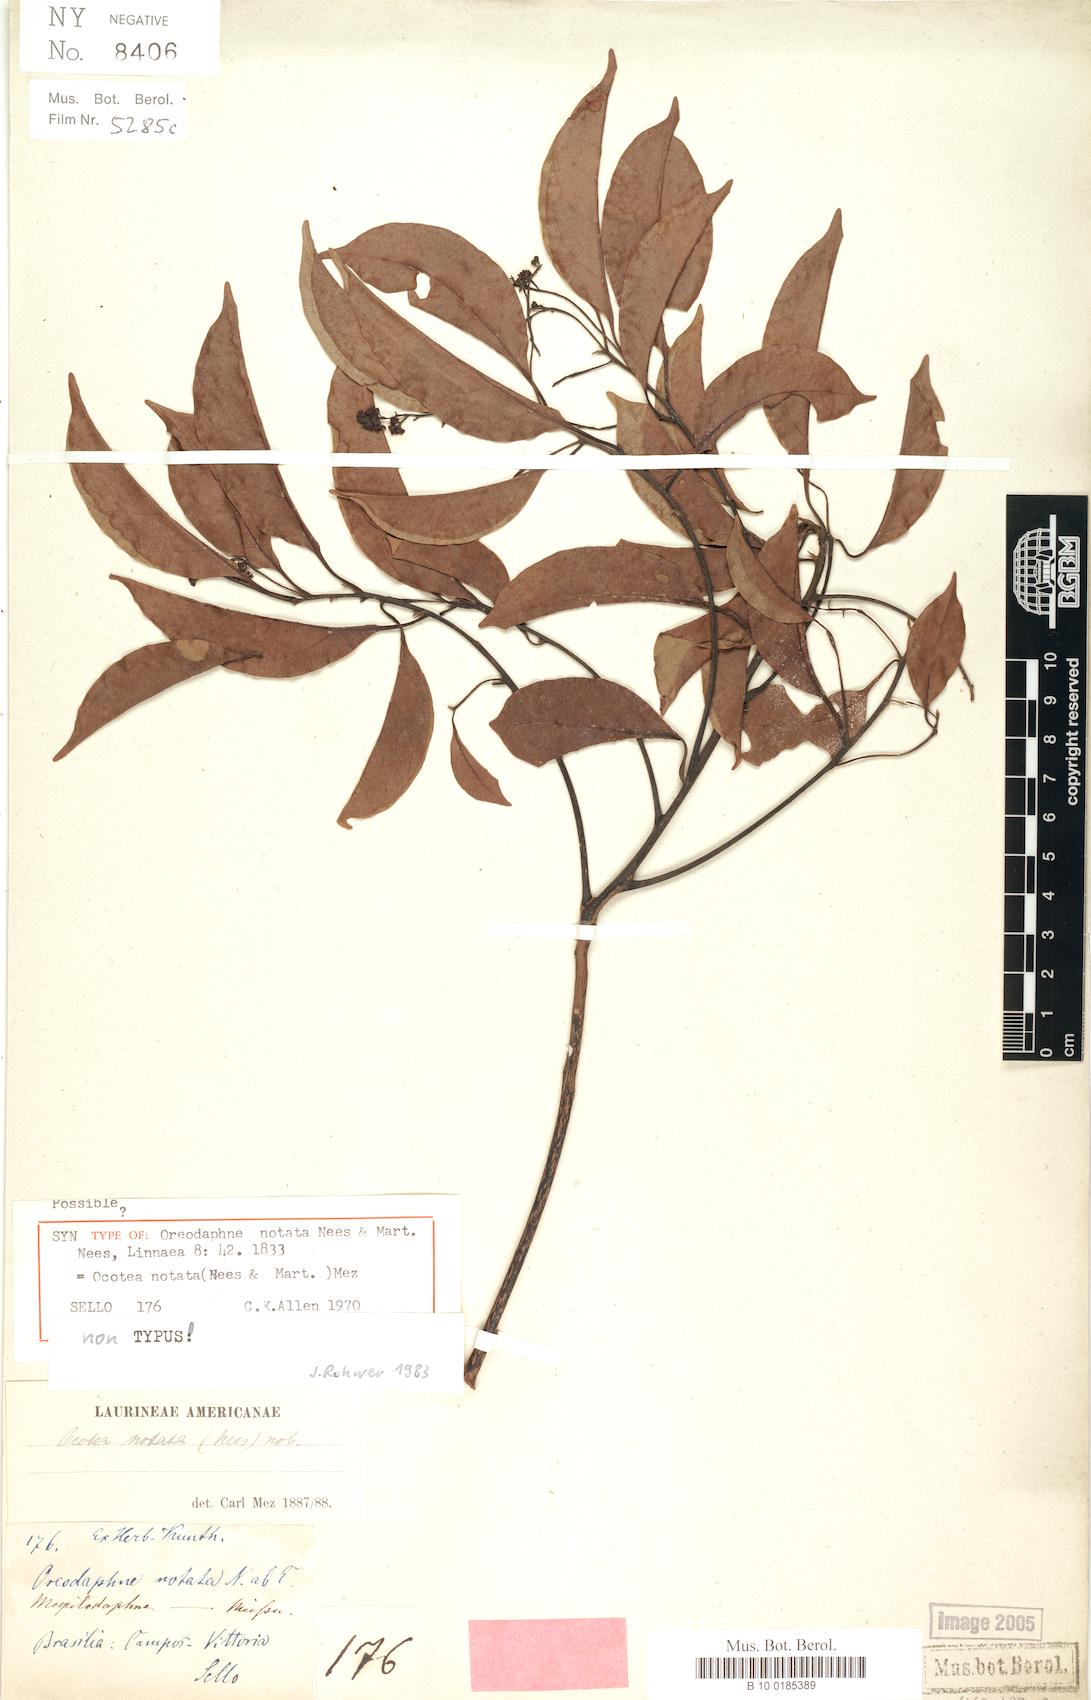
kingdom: Plantae
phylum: Tracheophyta
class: Magnoliopsida
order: Laurales
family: Lauraceae
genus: Mespilodaphne
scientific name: Mespilodaphne notata
